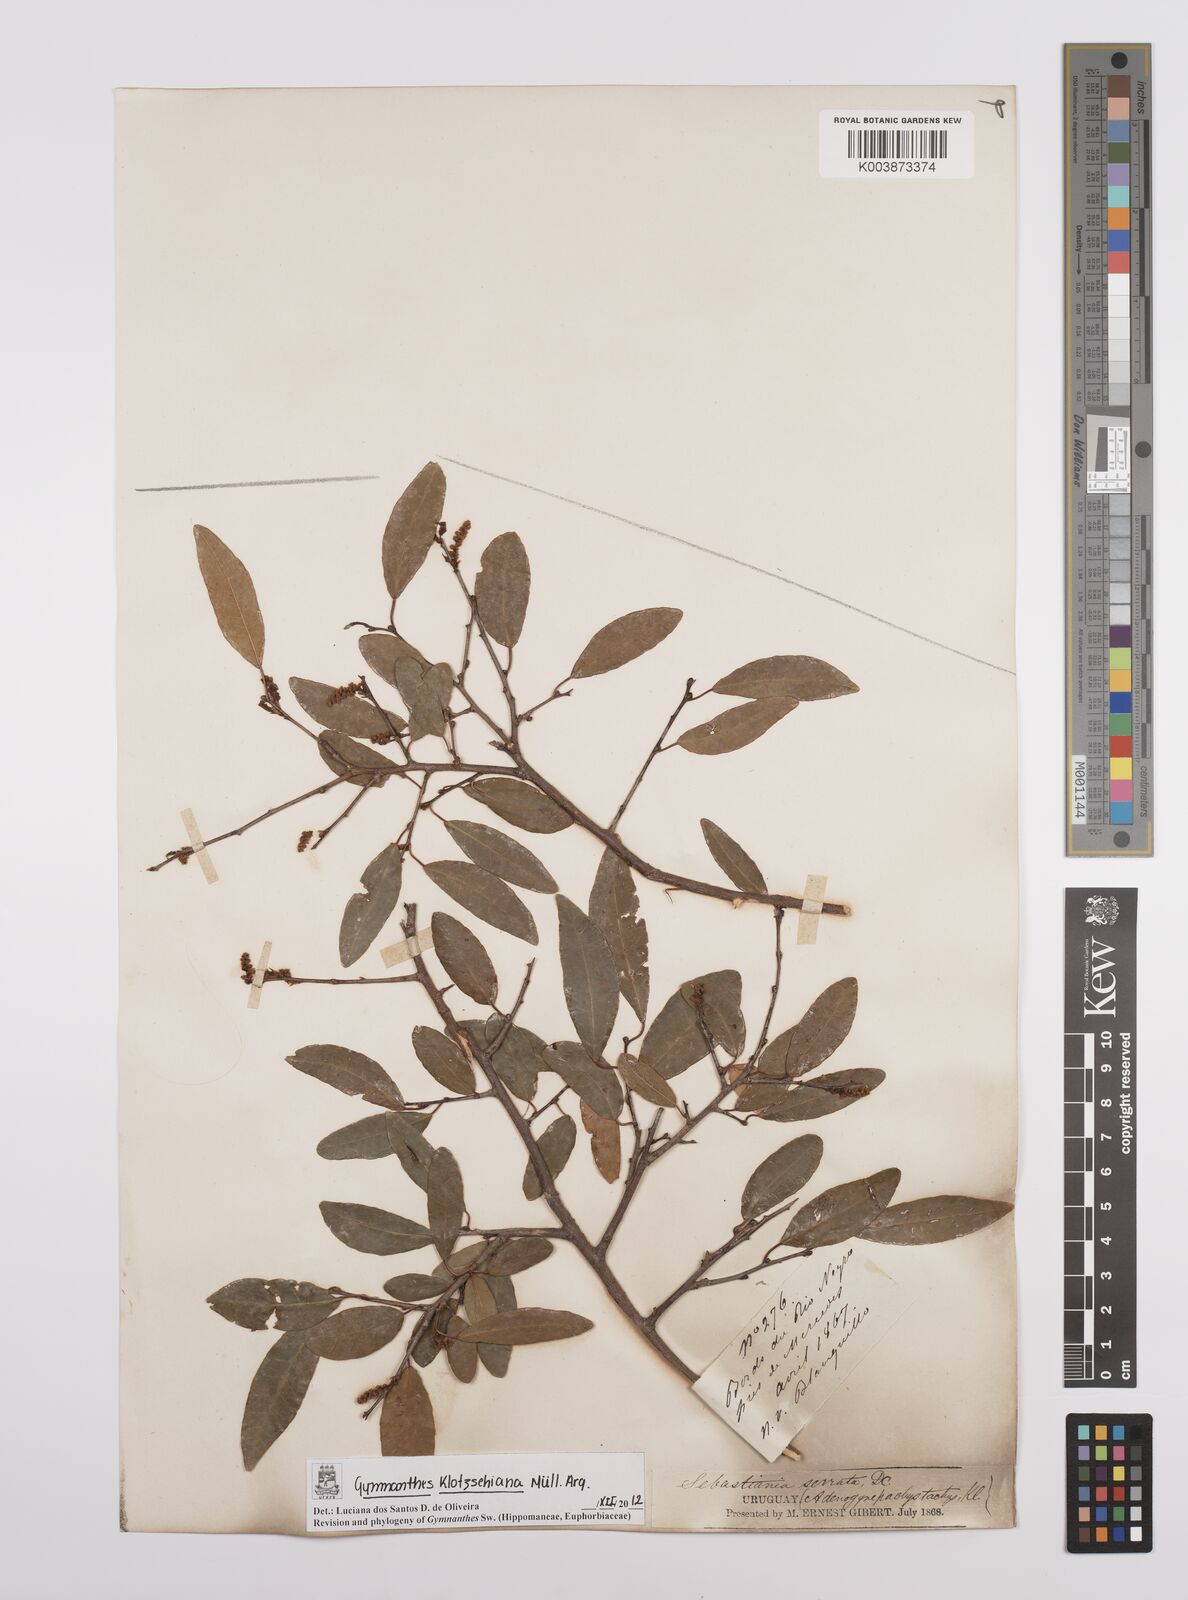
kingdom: Plantae
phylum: Tracheophyta
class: Magnoliopsida
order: Malpighiales
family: Euphorbiaceae
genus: Sebastiania
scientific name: Sebastiania klotzschiana
